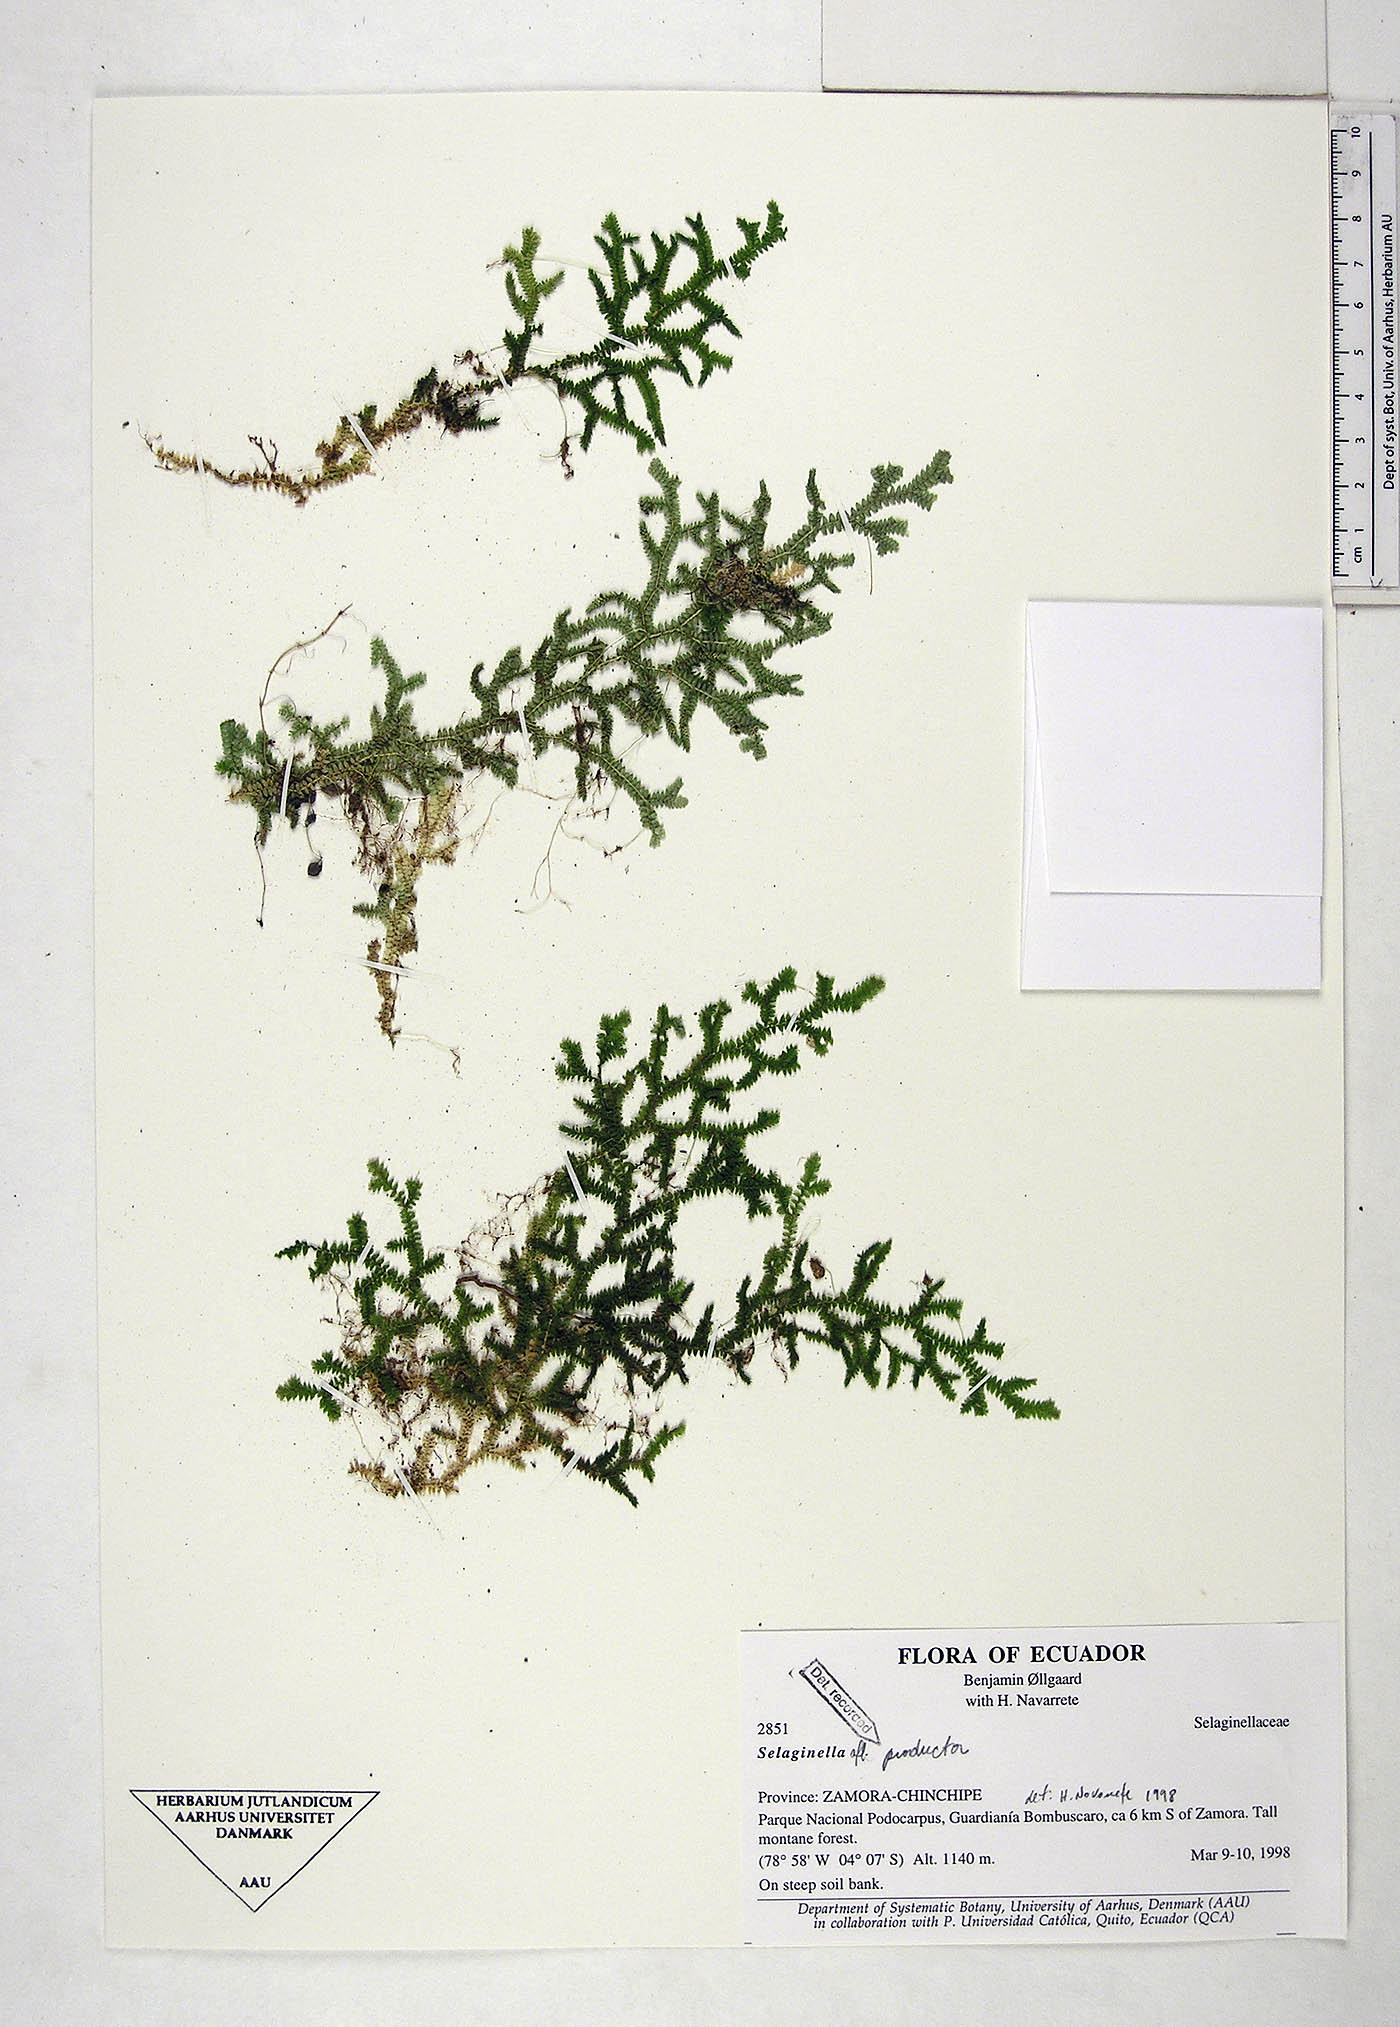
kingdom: Plantae
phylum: Tracheophyta
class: Lycopodiopsida
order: Selaginellales
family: Selaginellaceae
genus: Selaginella
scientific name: Selaginella producta
